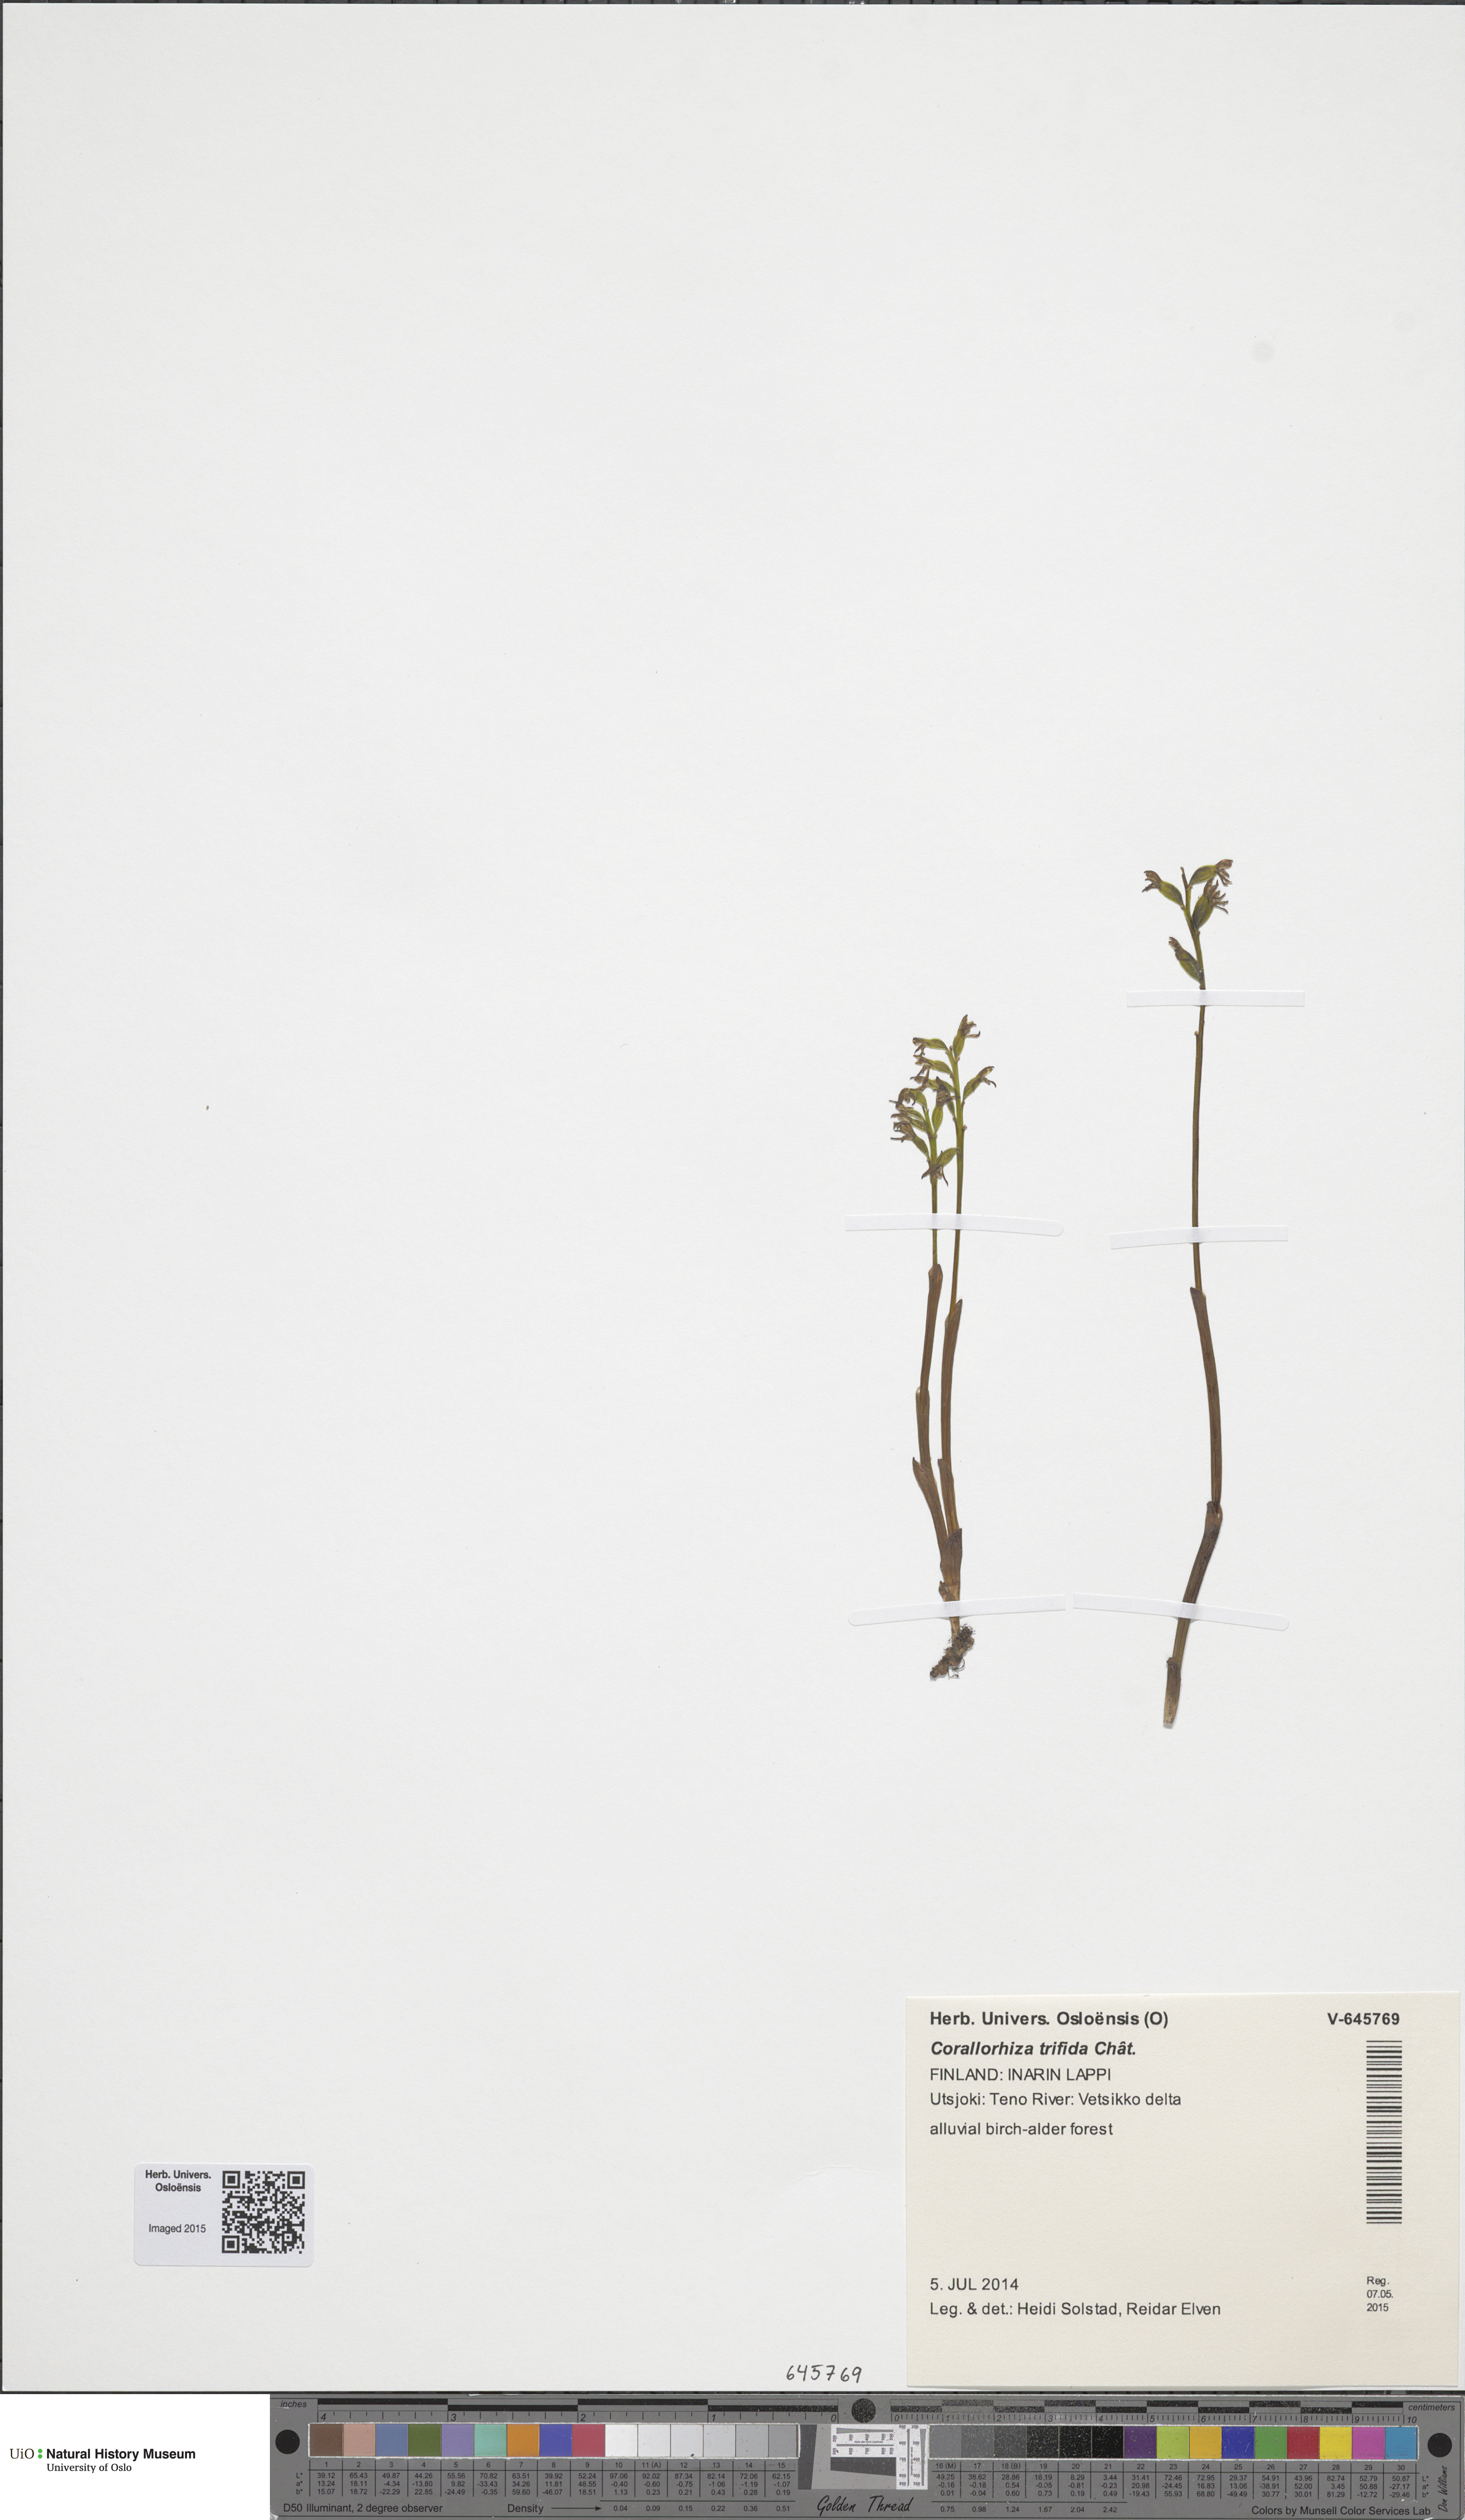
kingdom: Plantae
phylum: Tracheophyta
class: Liliopsida
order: Asparagales
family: Orchidaceae
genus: Corallorhiza
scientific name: Corallorhiza trifida
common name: Yellow coralroot
